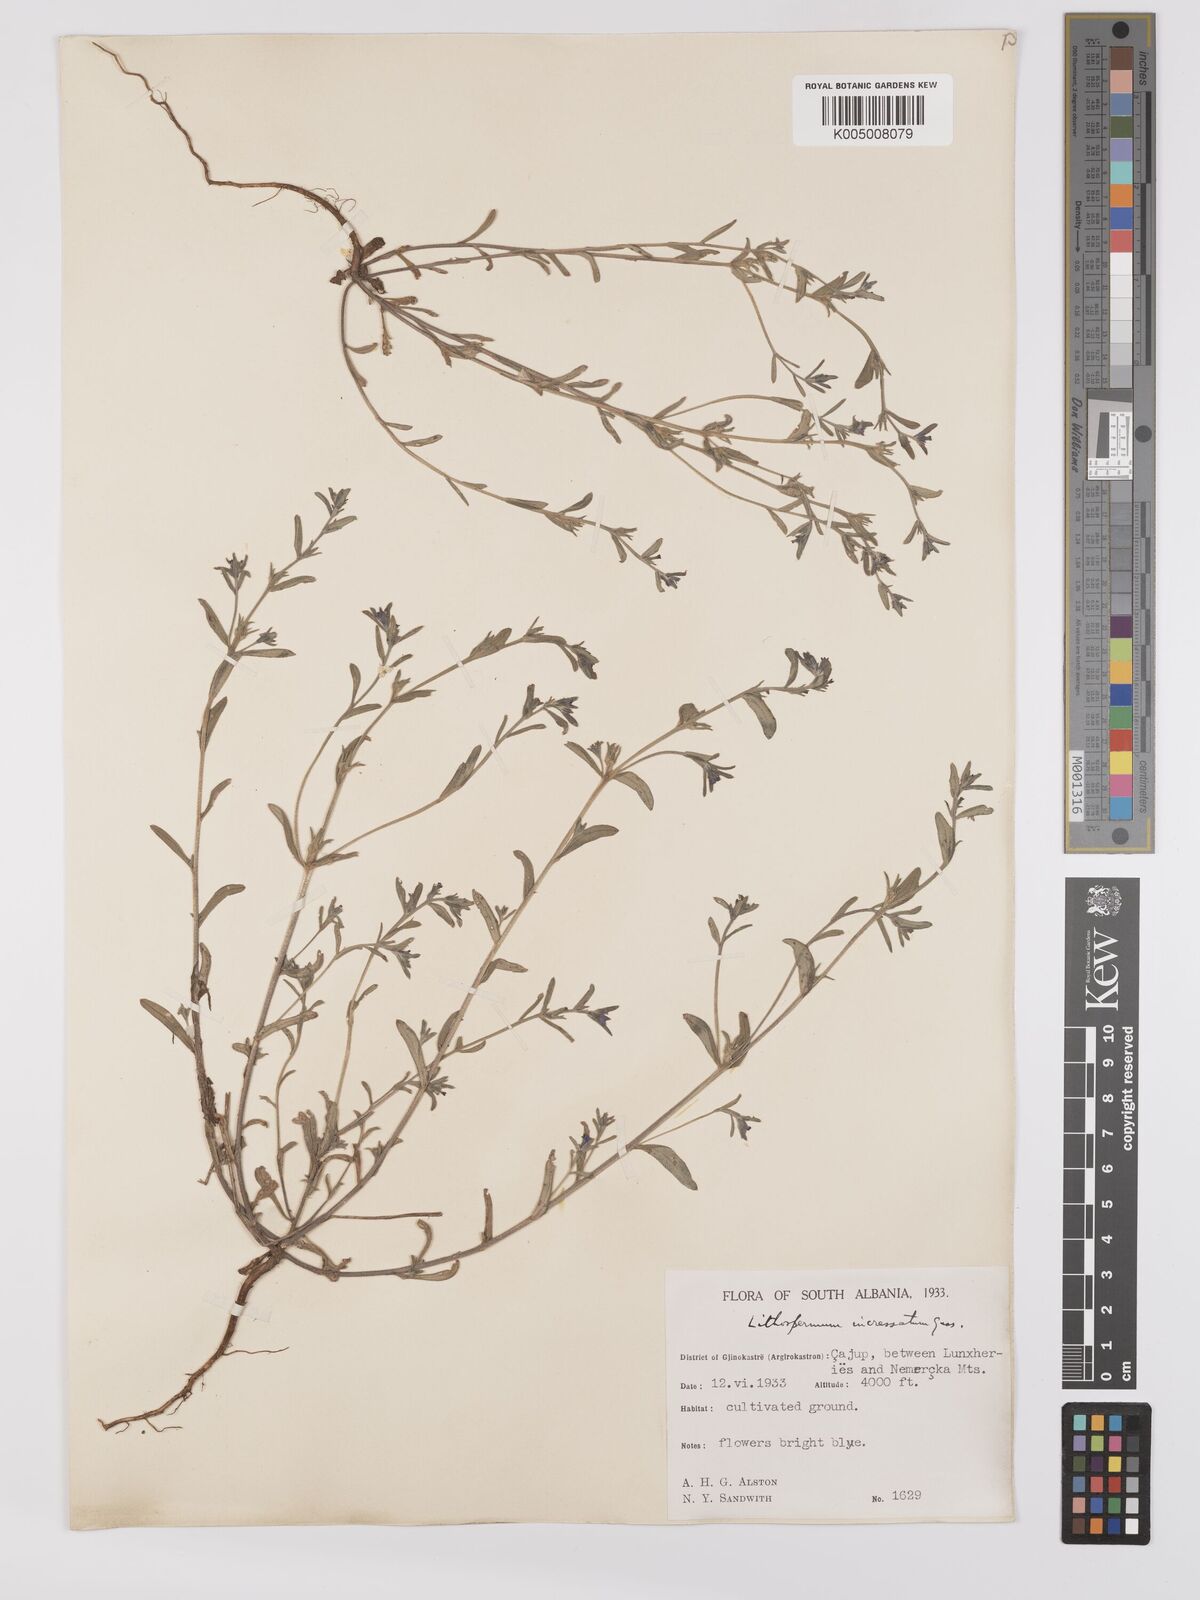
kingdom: Plantae
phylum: Tracheophyta
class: Magnoliopsida
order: Boraginales
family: Boraginaceae
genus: Buglossoides
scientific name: Buglossoides incrassata
